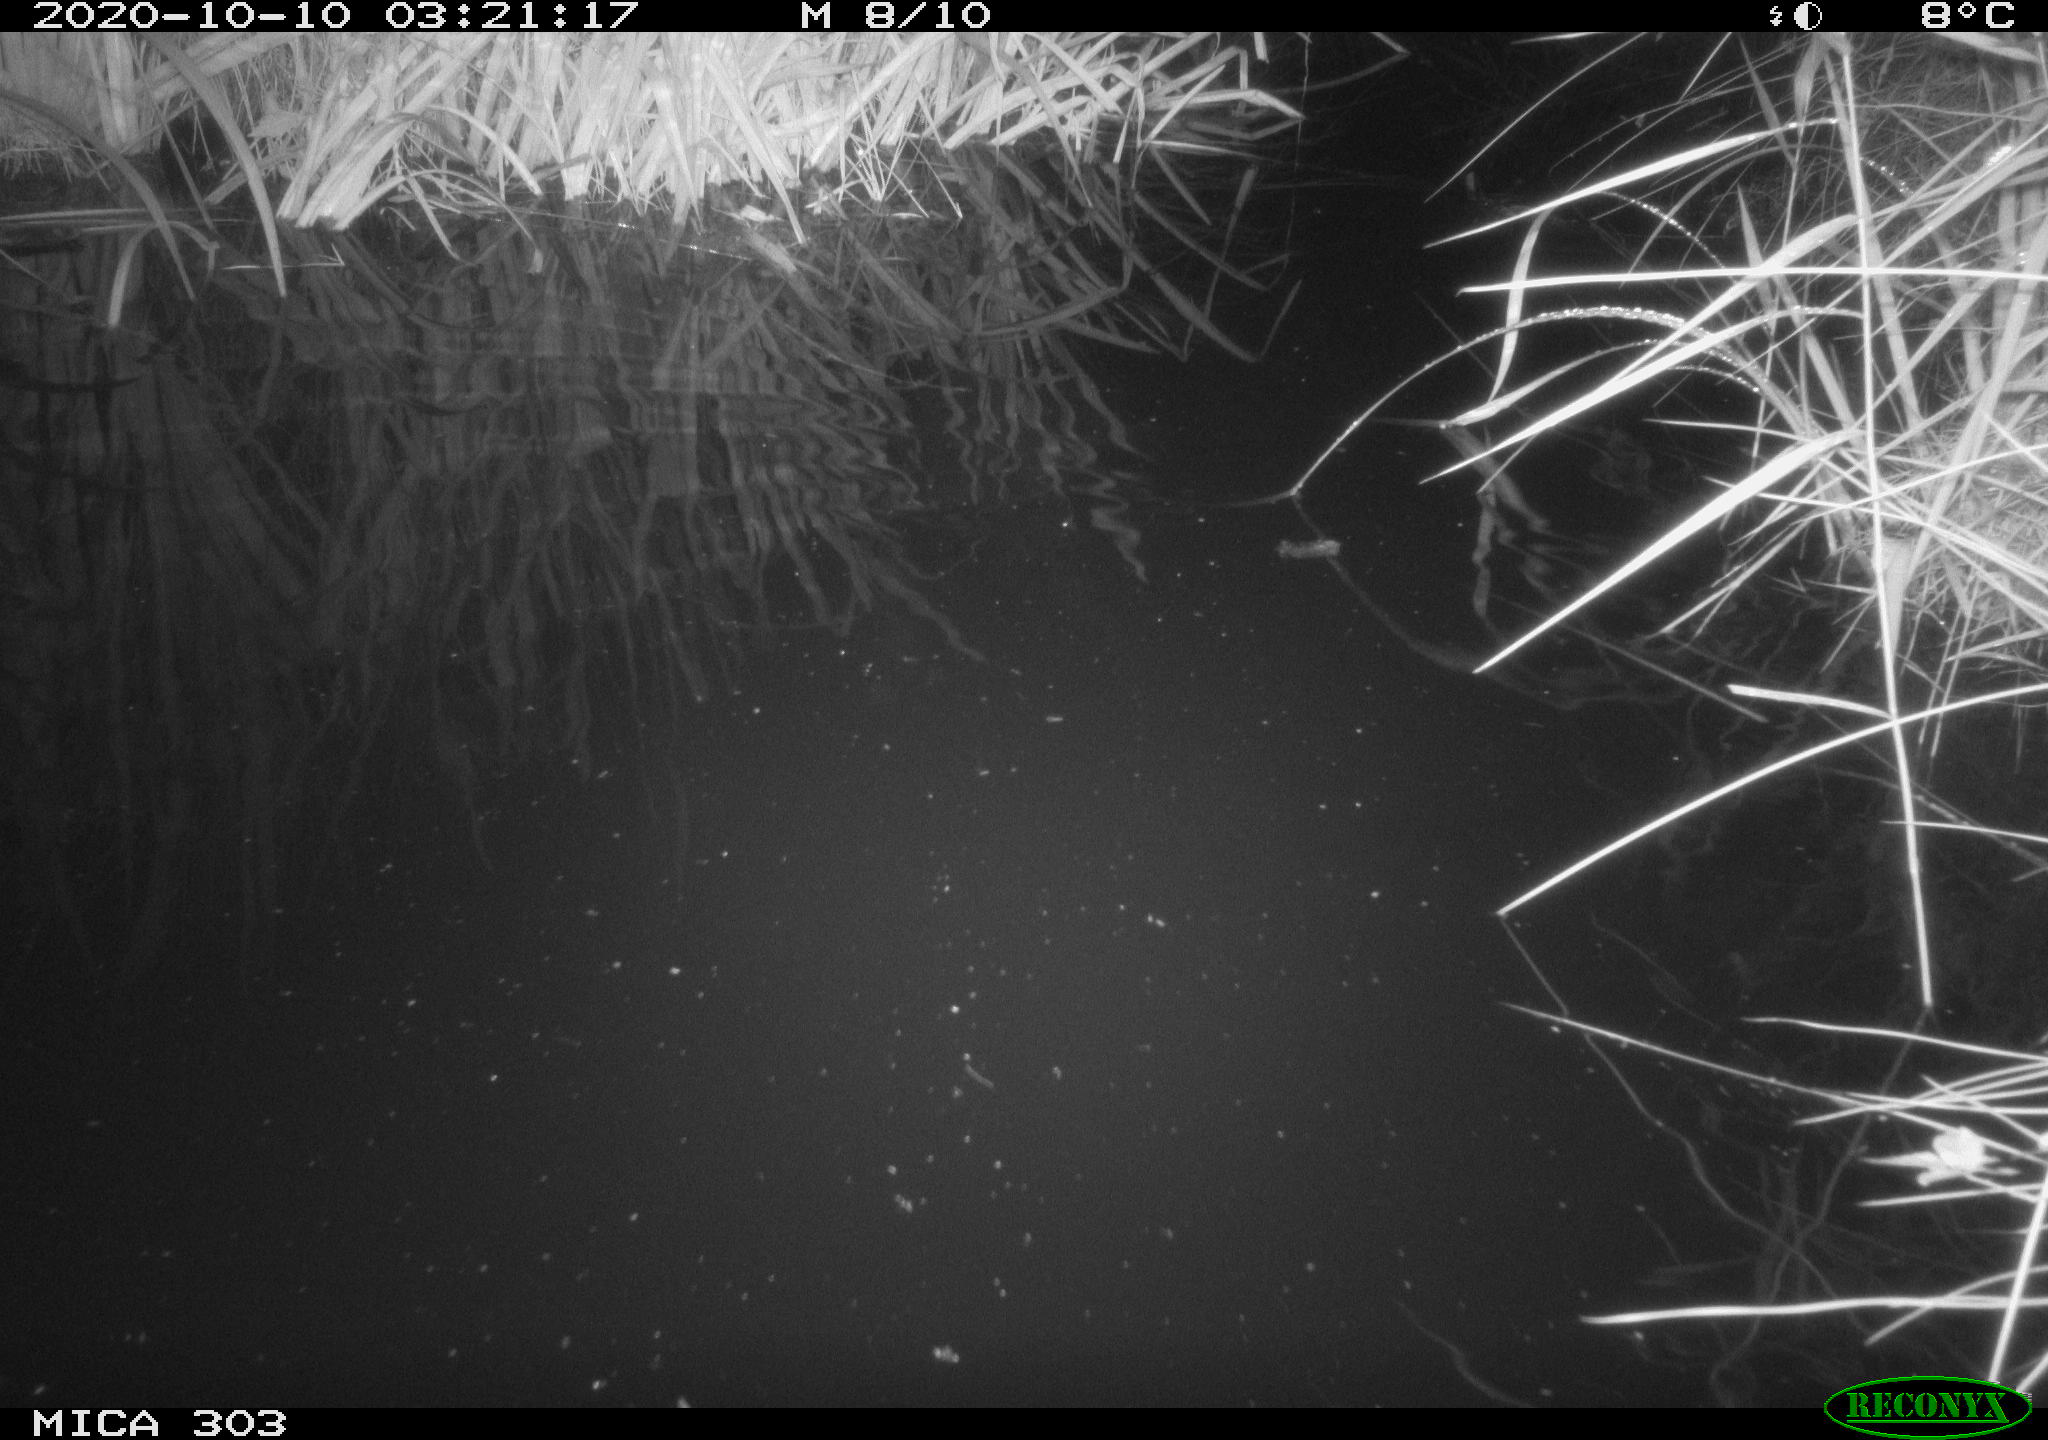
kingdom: Animalia
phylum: Chordata
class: Mammalia
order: Rodentia
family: Muridae
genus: Rattus
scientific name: Rattus norvegicus
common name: Brown rat
